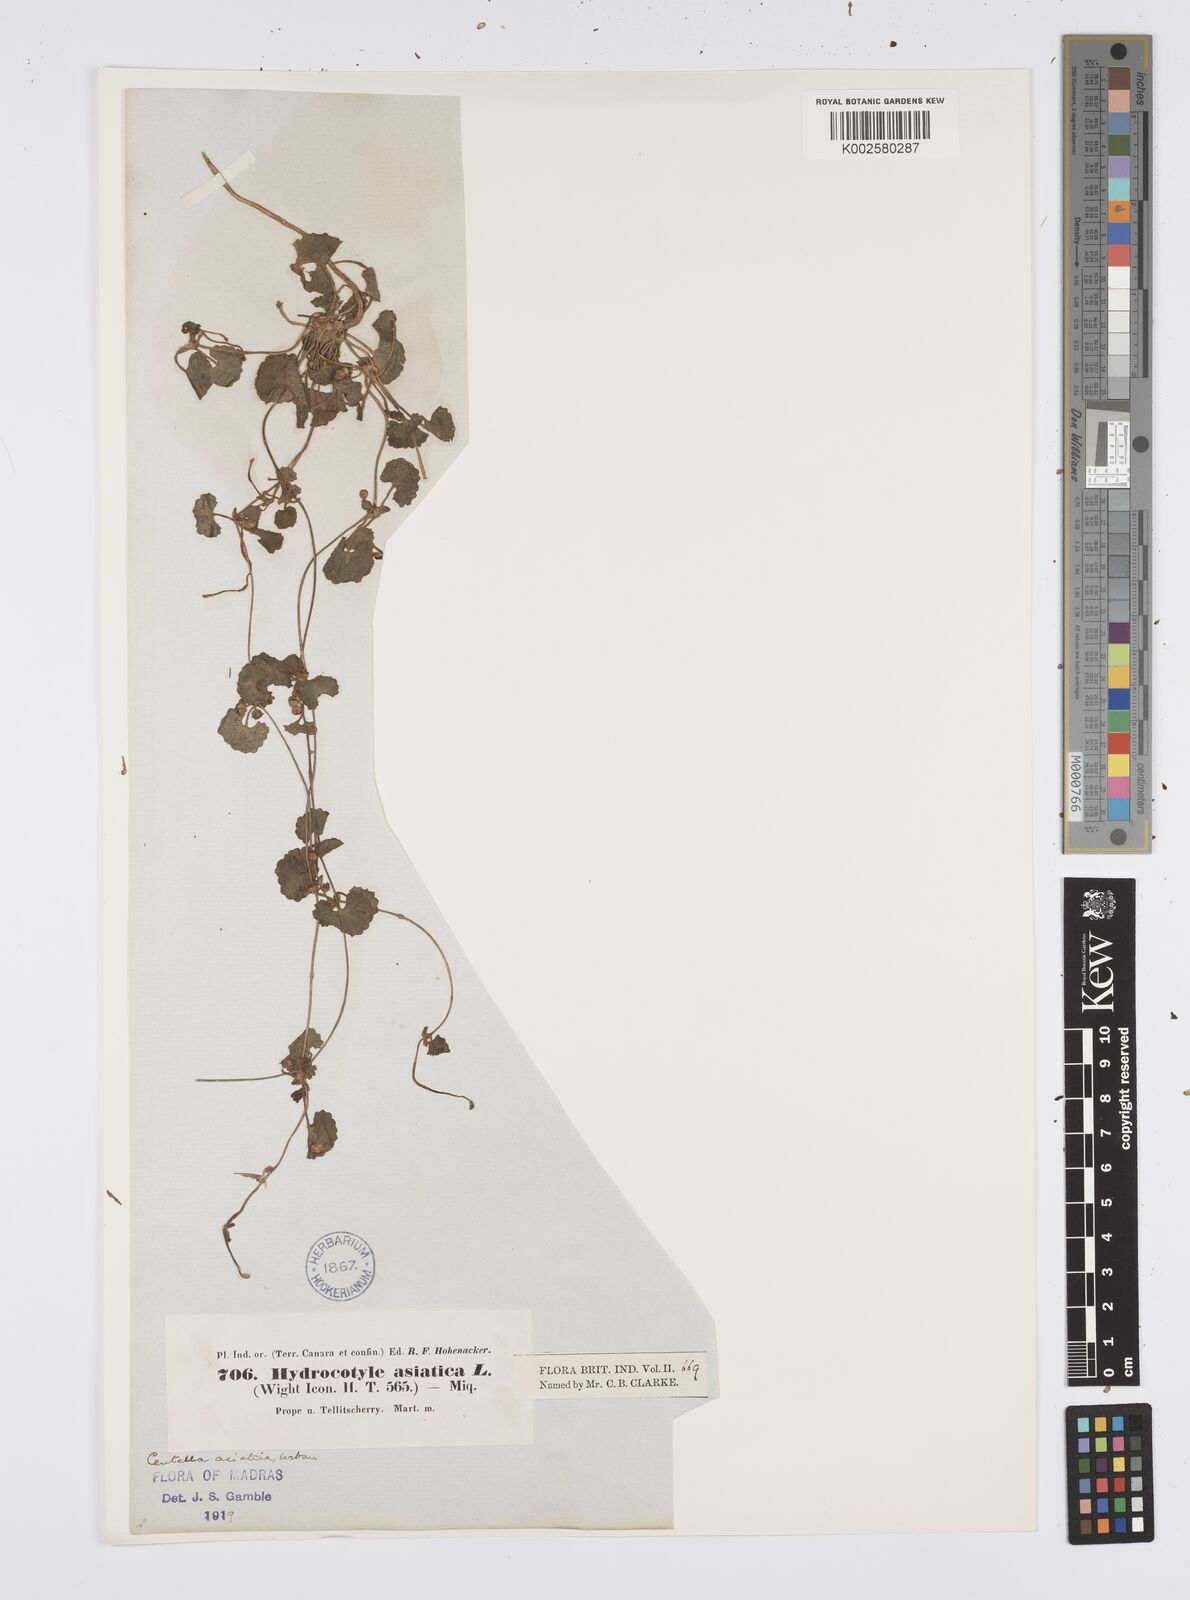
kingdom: Plantae
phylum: Tracheophyta
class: Magnoliopsida
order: Apiales
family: Apiaceae
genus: Centella
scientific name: Centella asiatica
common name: Spadeleaf
